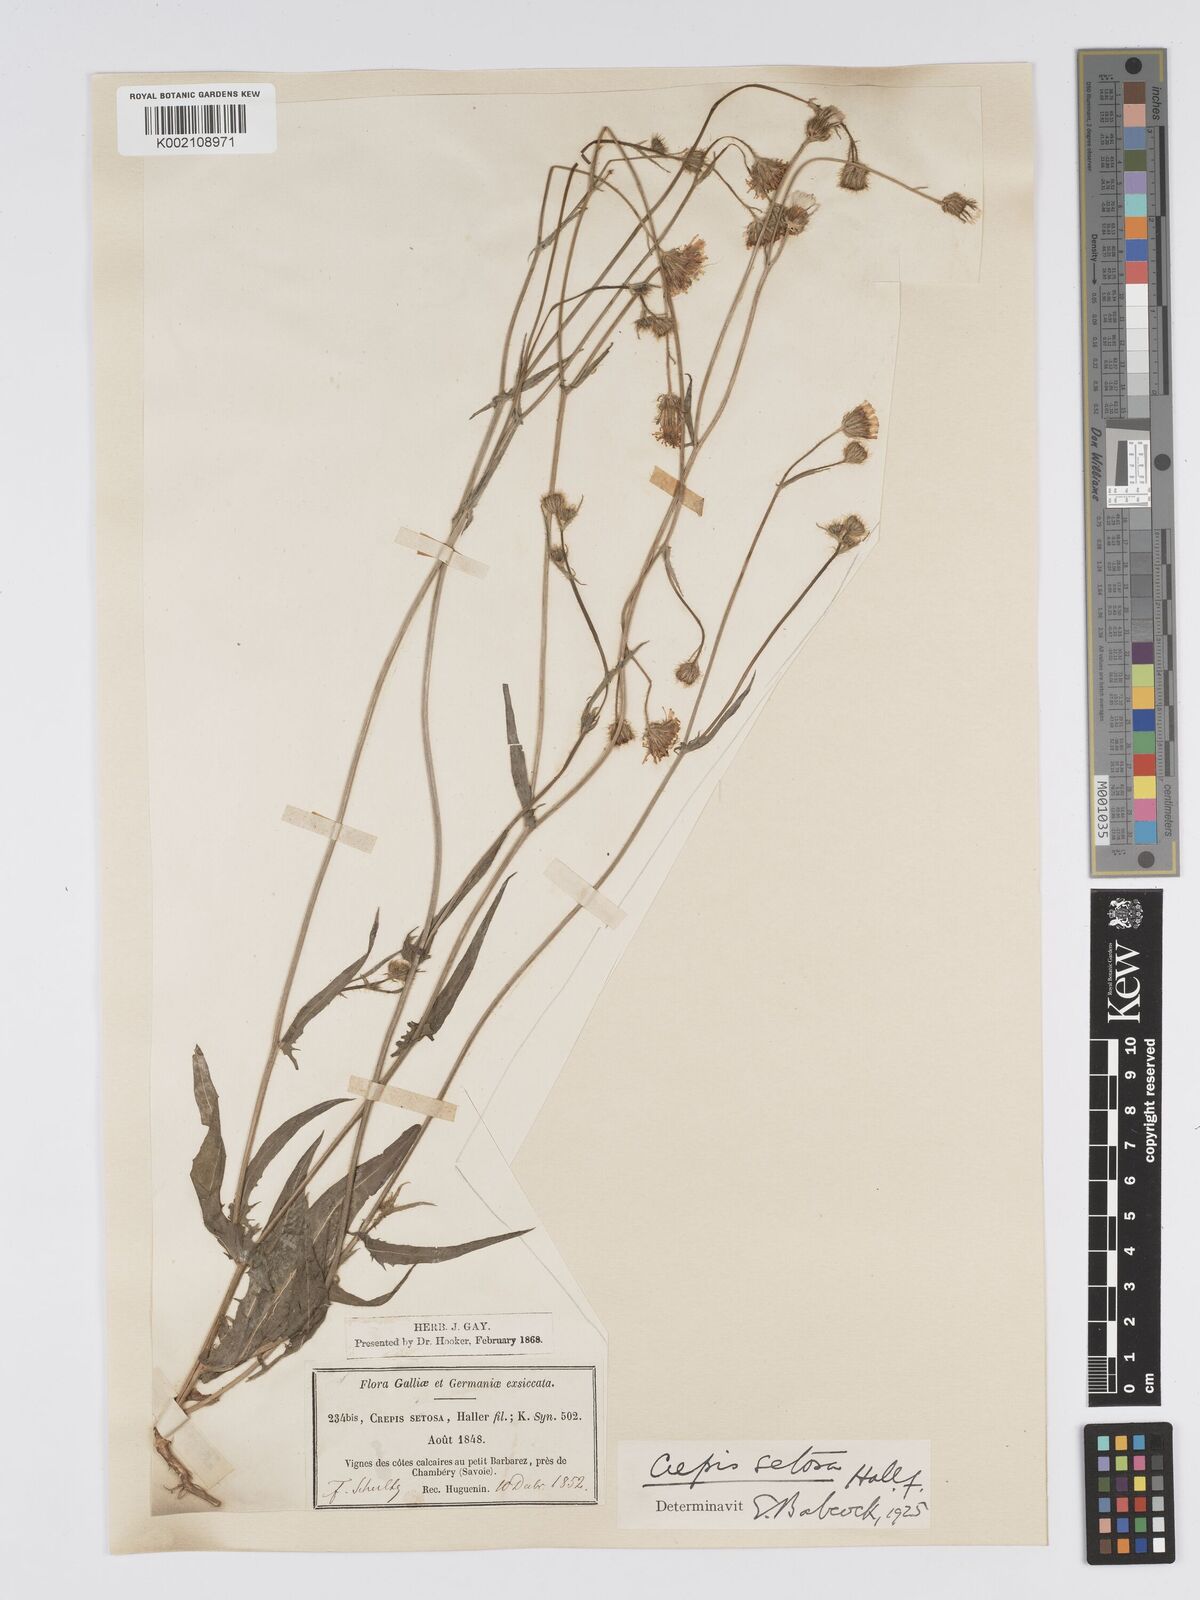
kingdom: Plantae
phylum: Tracheophyta
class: Magnoliopsida
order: Asterales
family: Asteraceae
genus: Crepis
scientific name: Crepis setosa
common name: Bristly hawk's-beard
